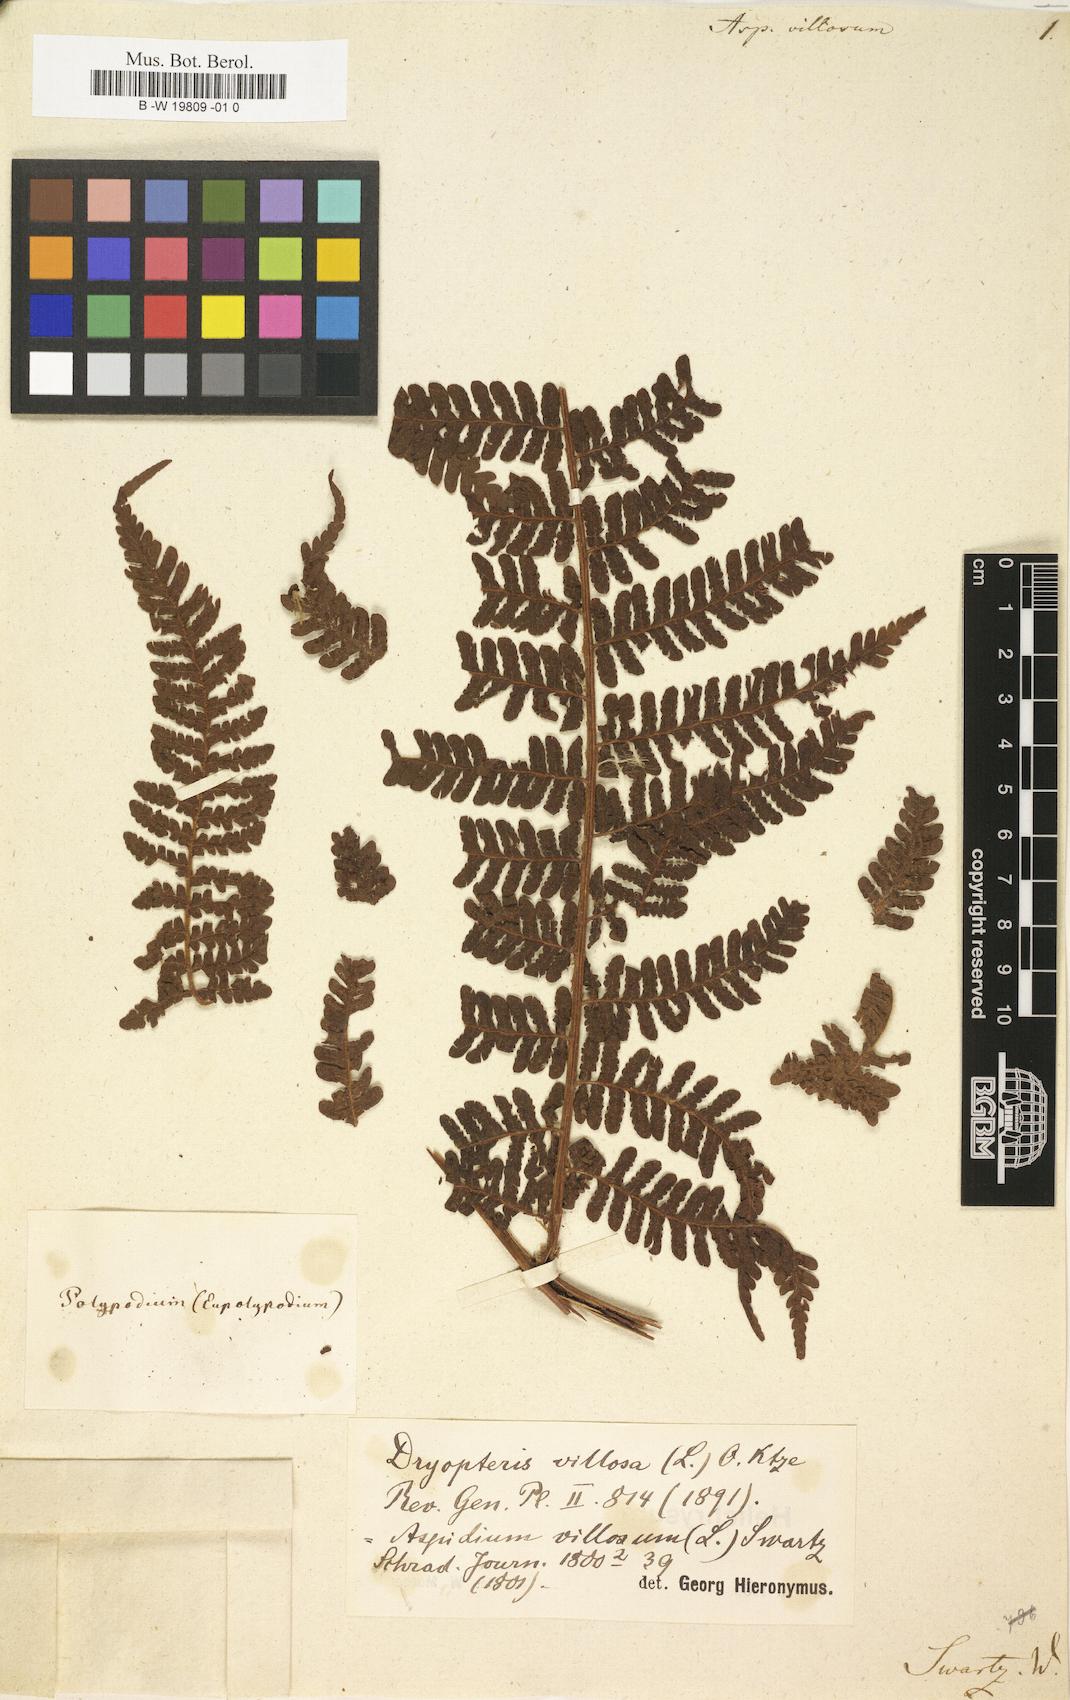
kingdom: Plantae
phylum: Tracheophyta
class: Polypodiopsida
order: Polypodiales
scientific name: Polypodiales
